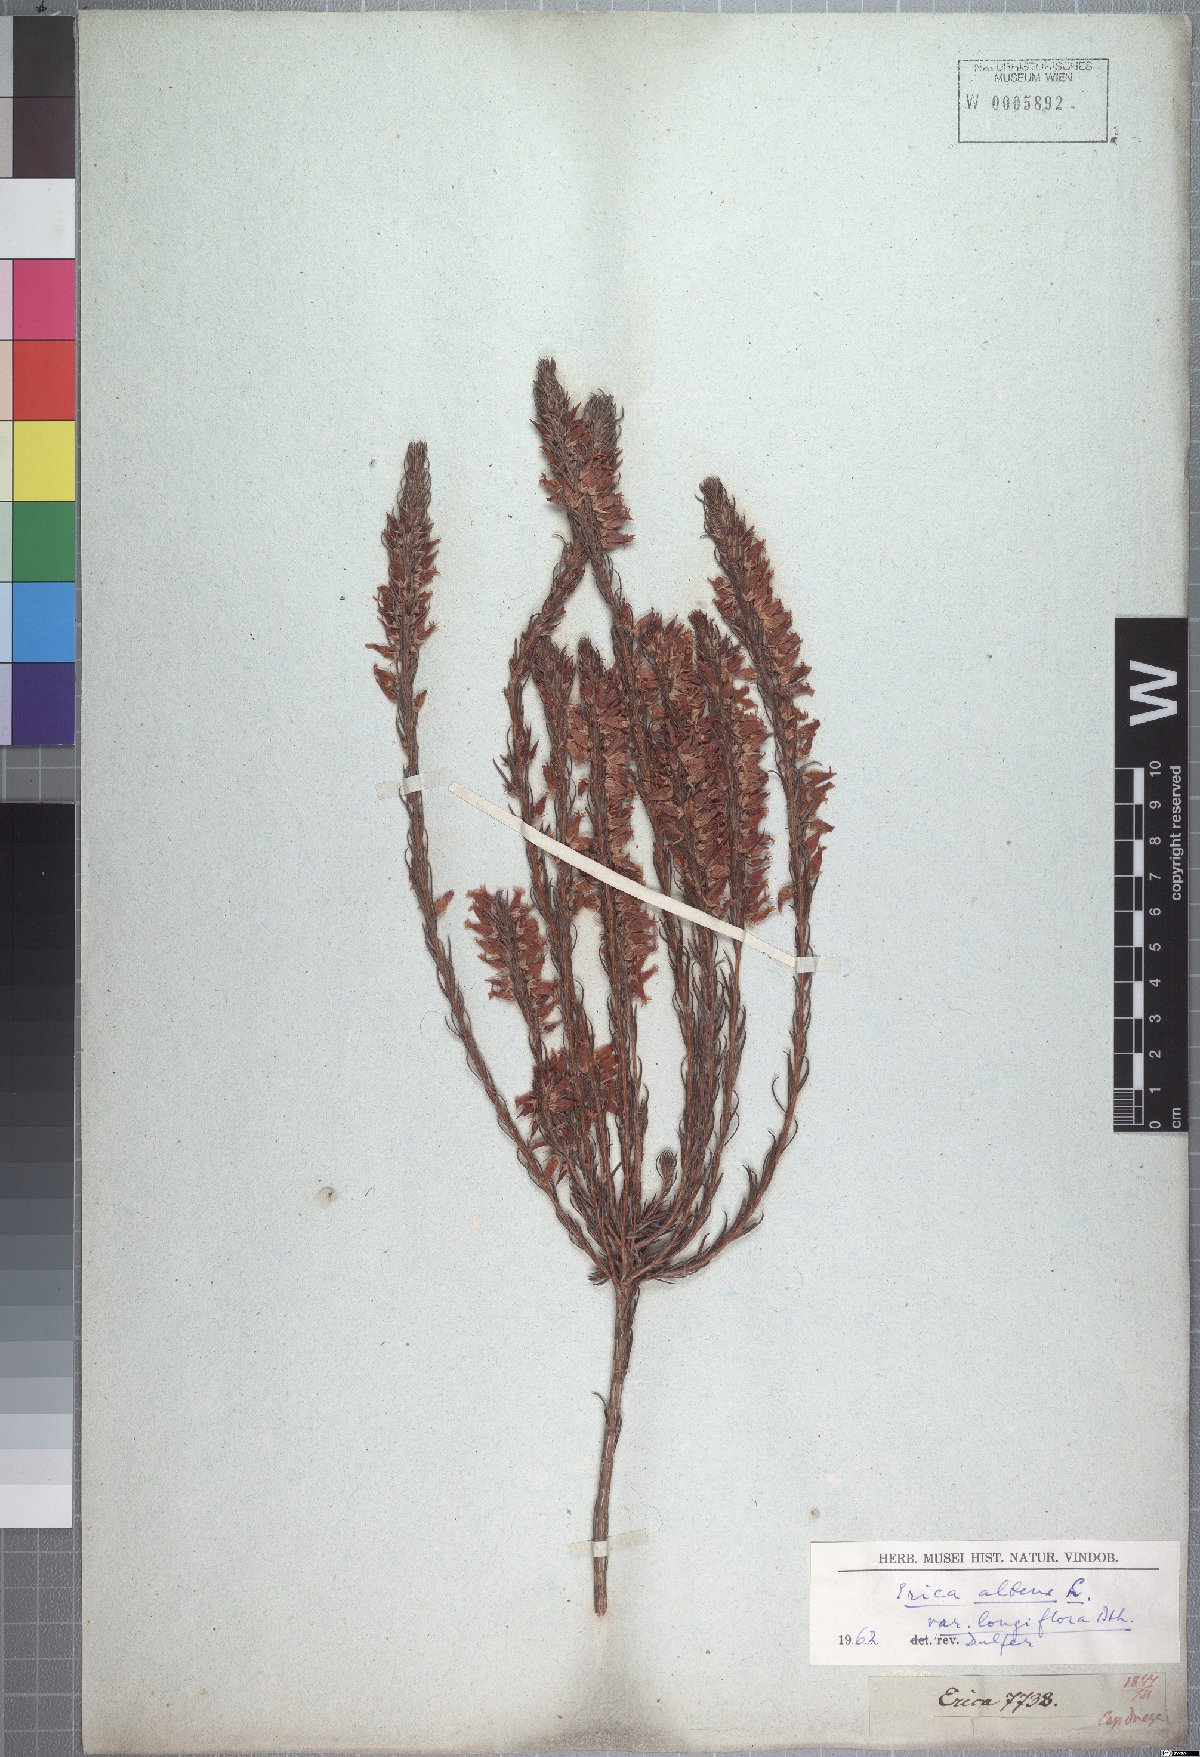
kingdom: Plantae
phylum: Tracheophyta
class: Magnoliopsida
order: Ericales
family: Ericaceae
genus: Erica
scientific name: Erica albens
